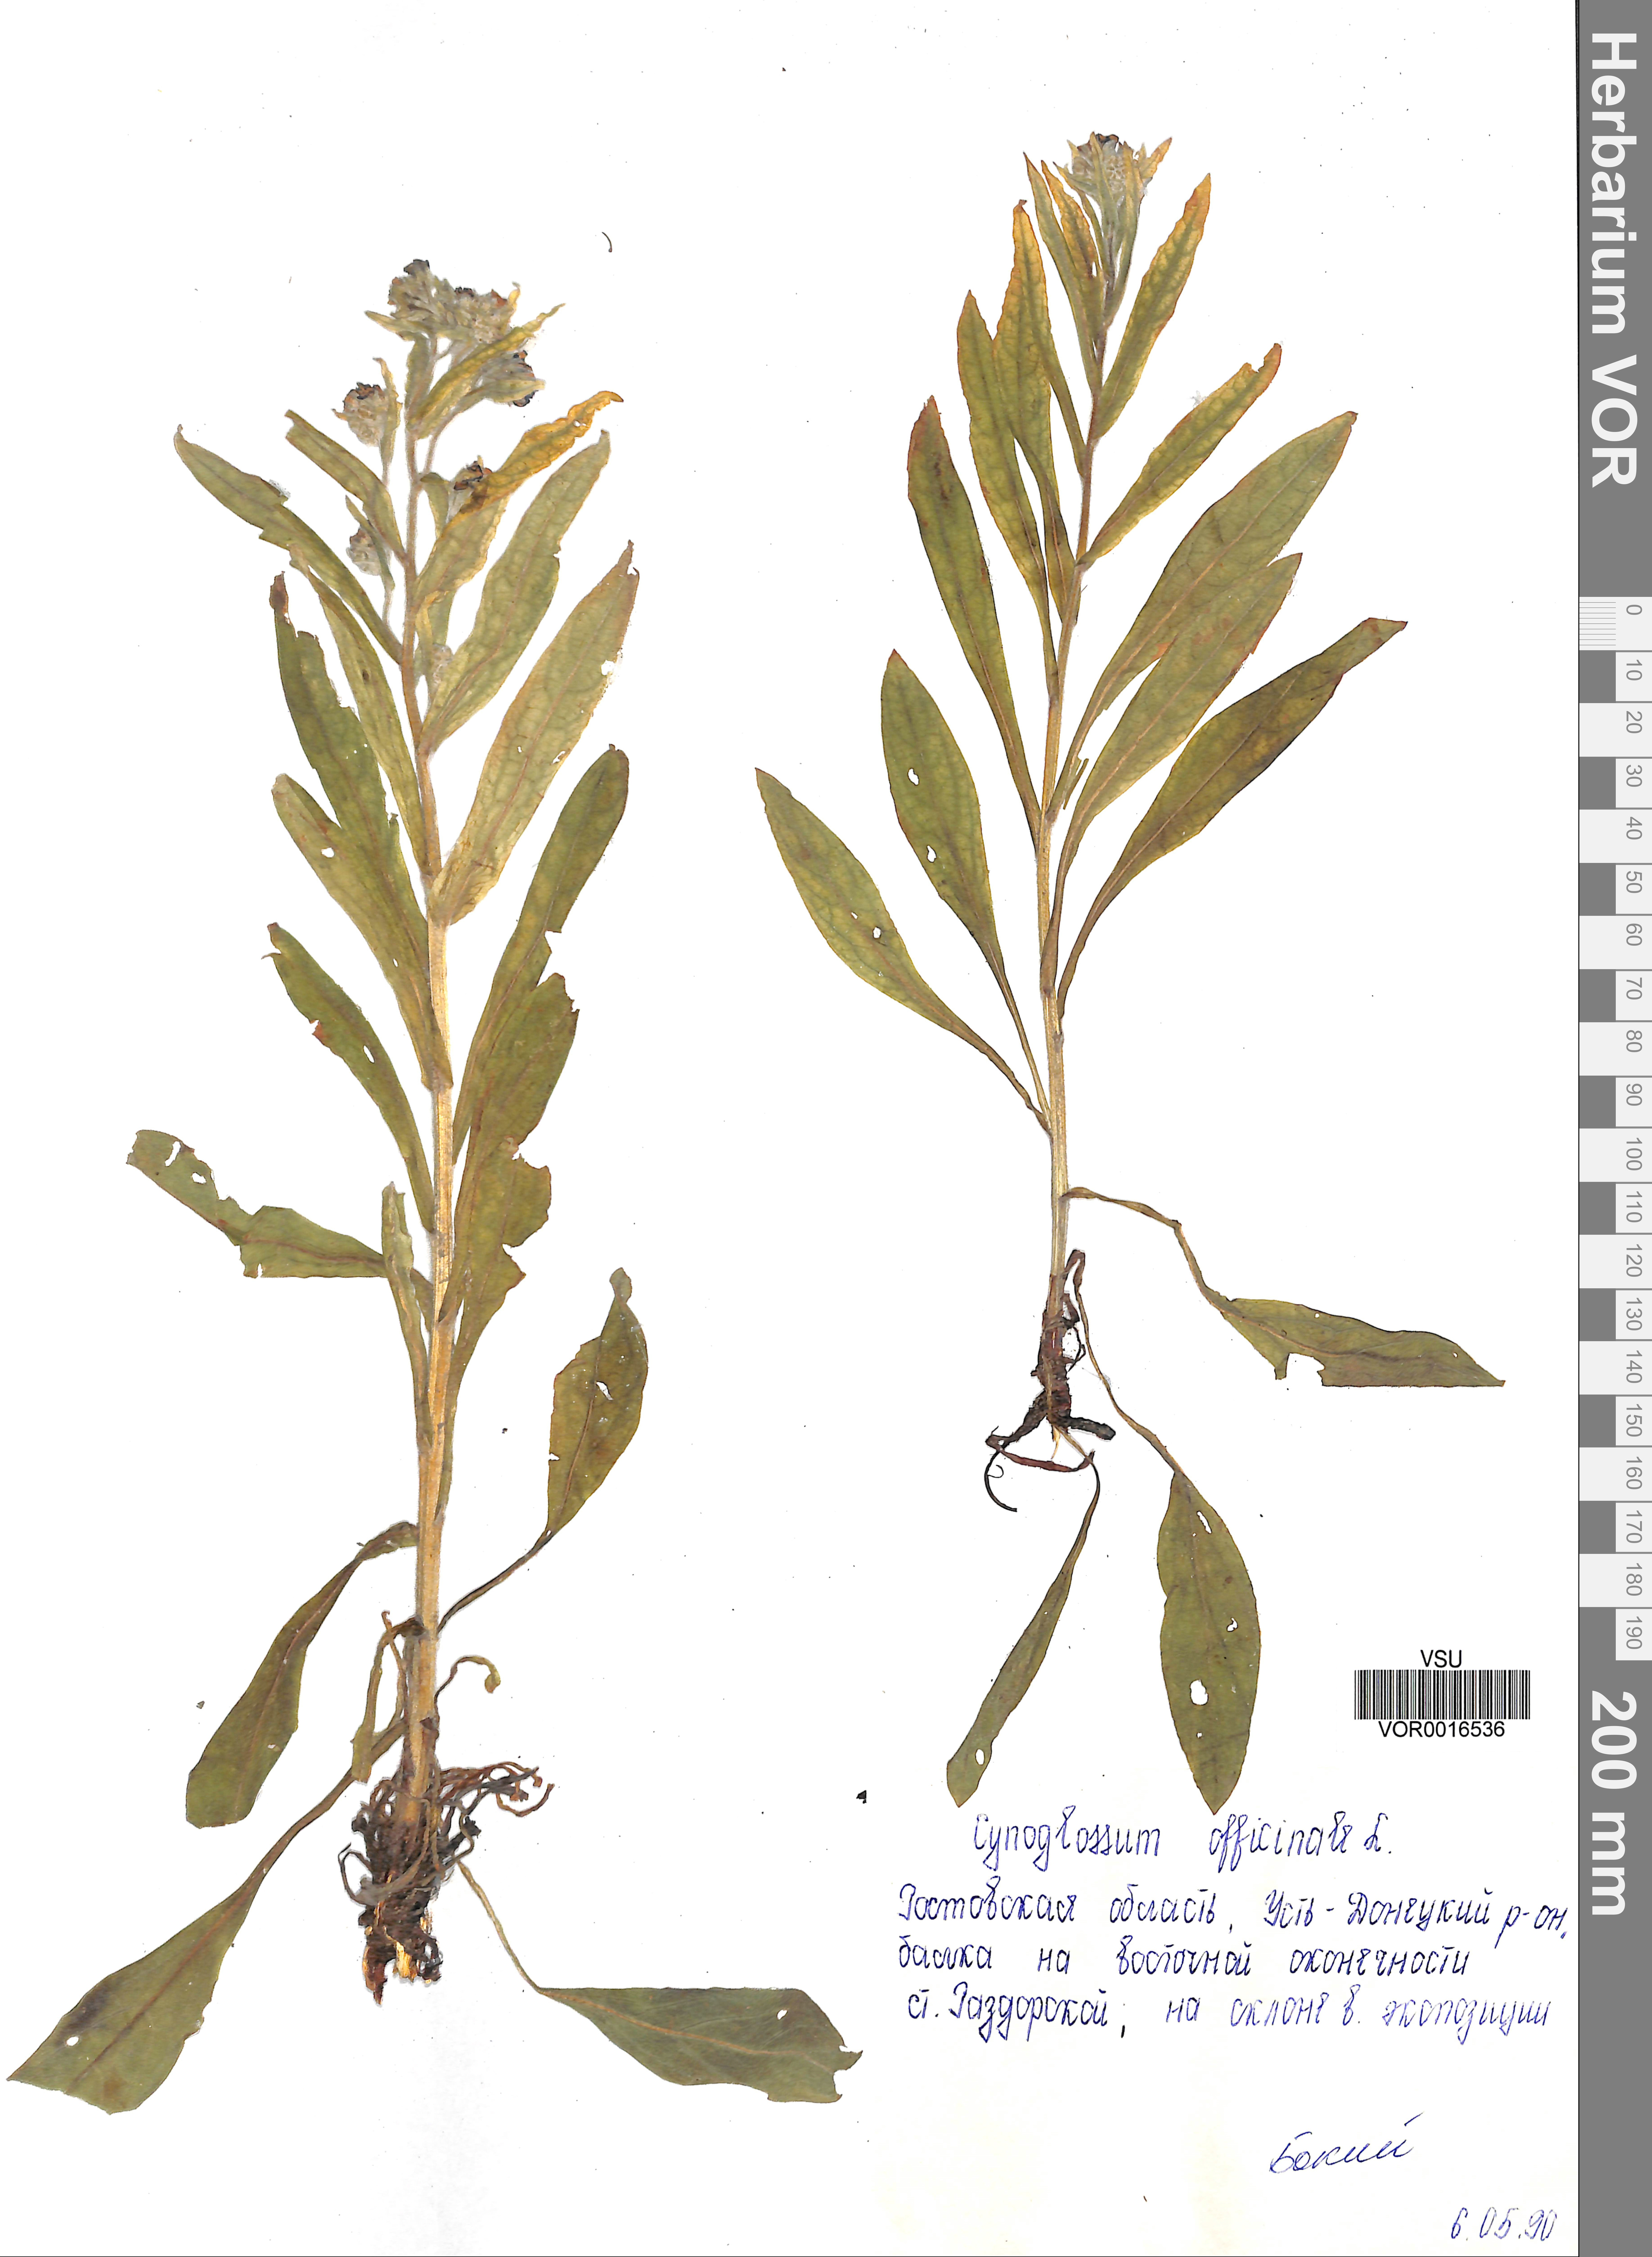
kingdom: Plantae
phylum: Tracheophyta
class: Magnoliopsida
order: Boraginales
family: Boraginaceae
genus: Cynoglossum
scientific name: Cynoglossum officinale
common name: Hound's-tongue
